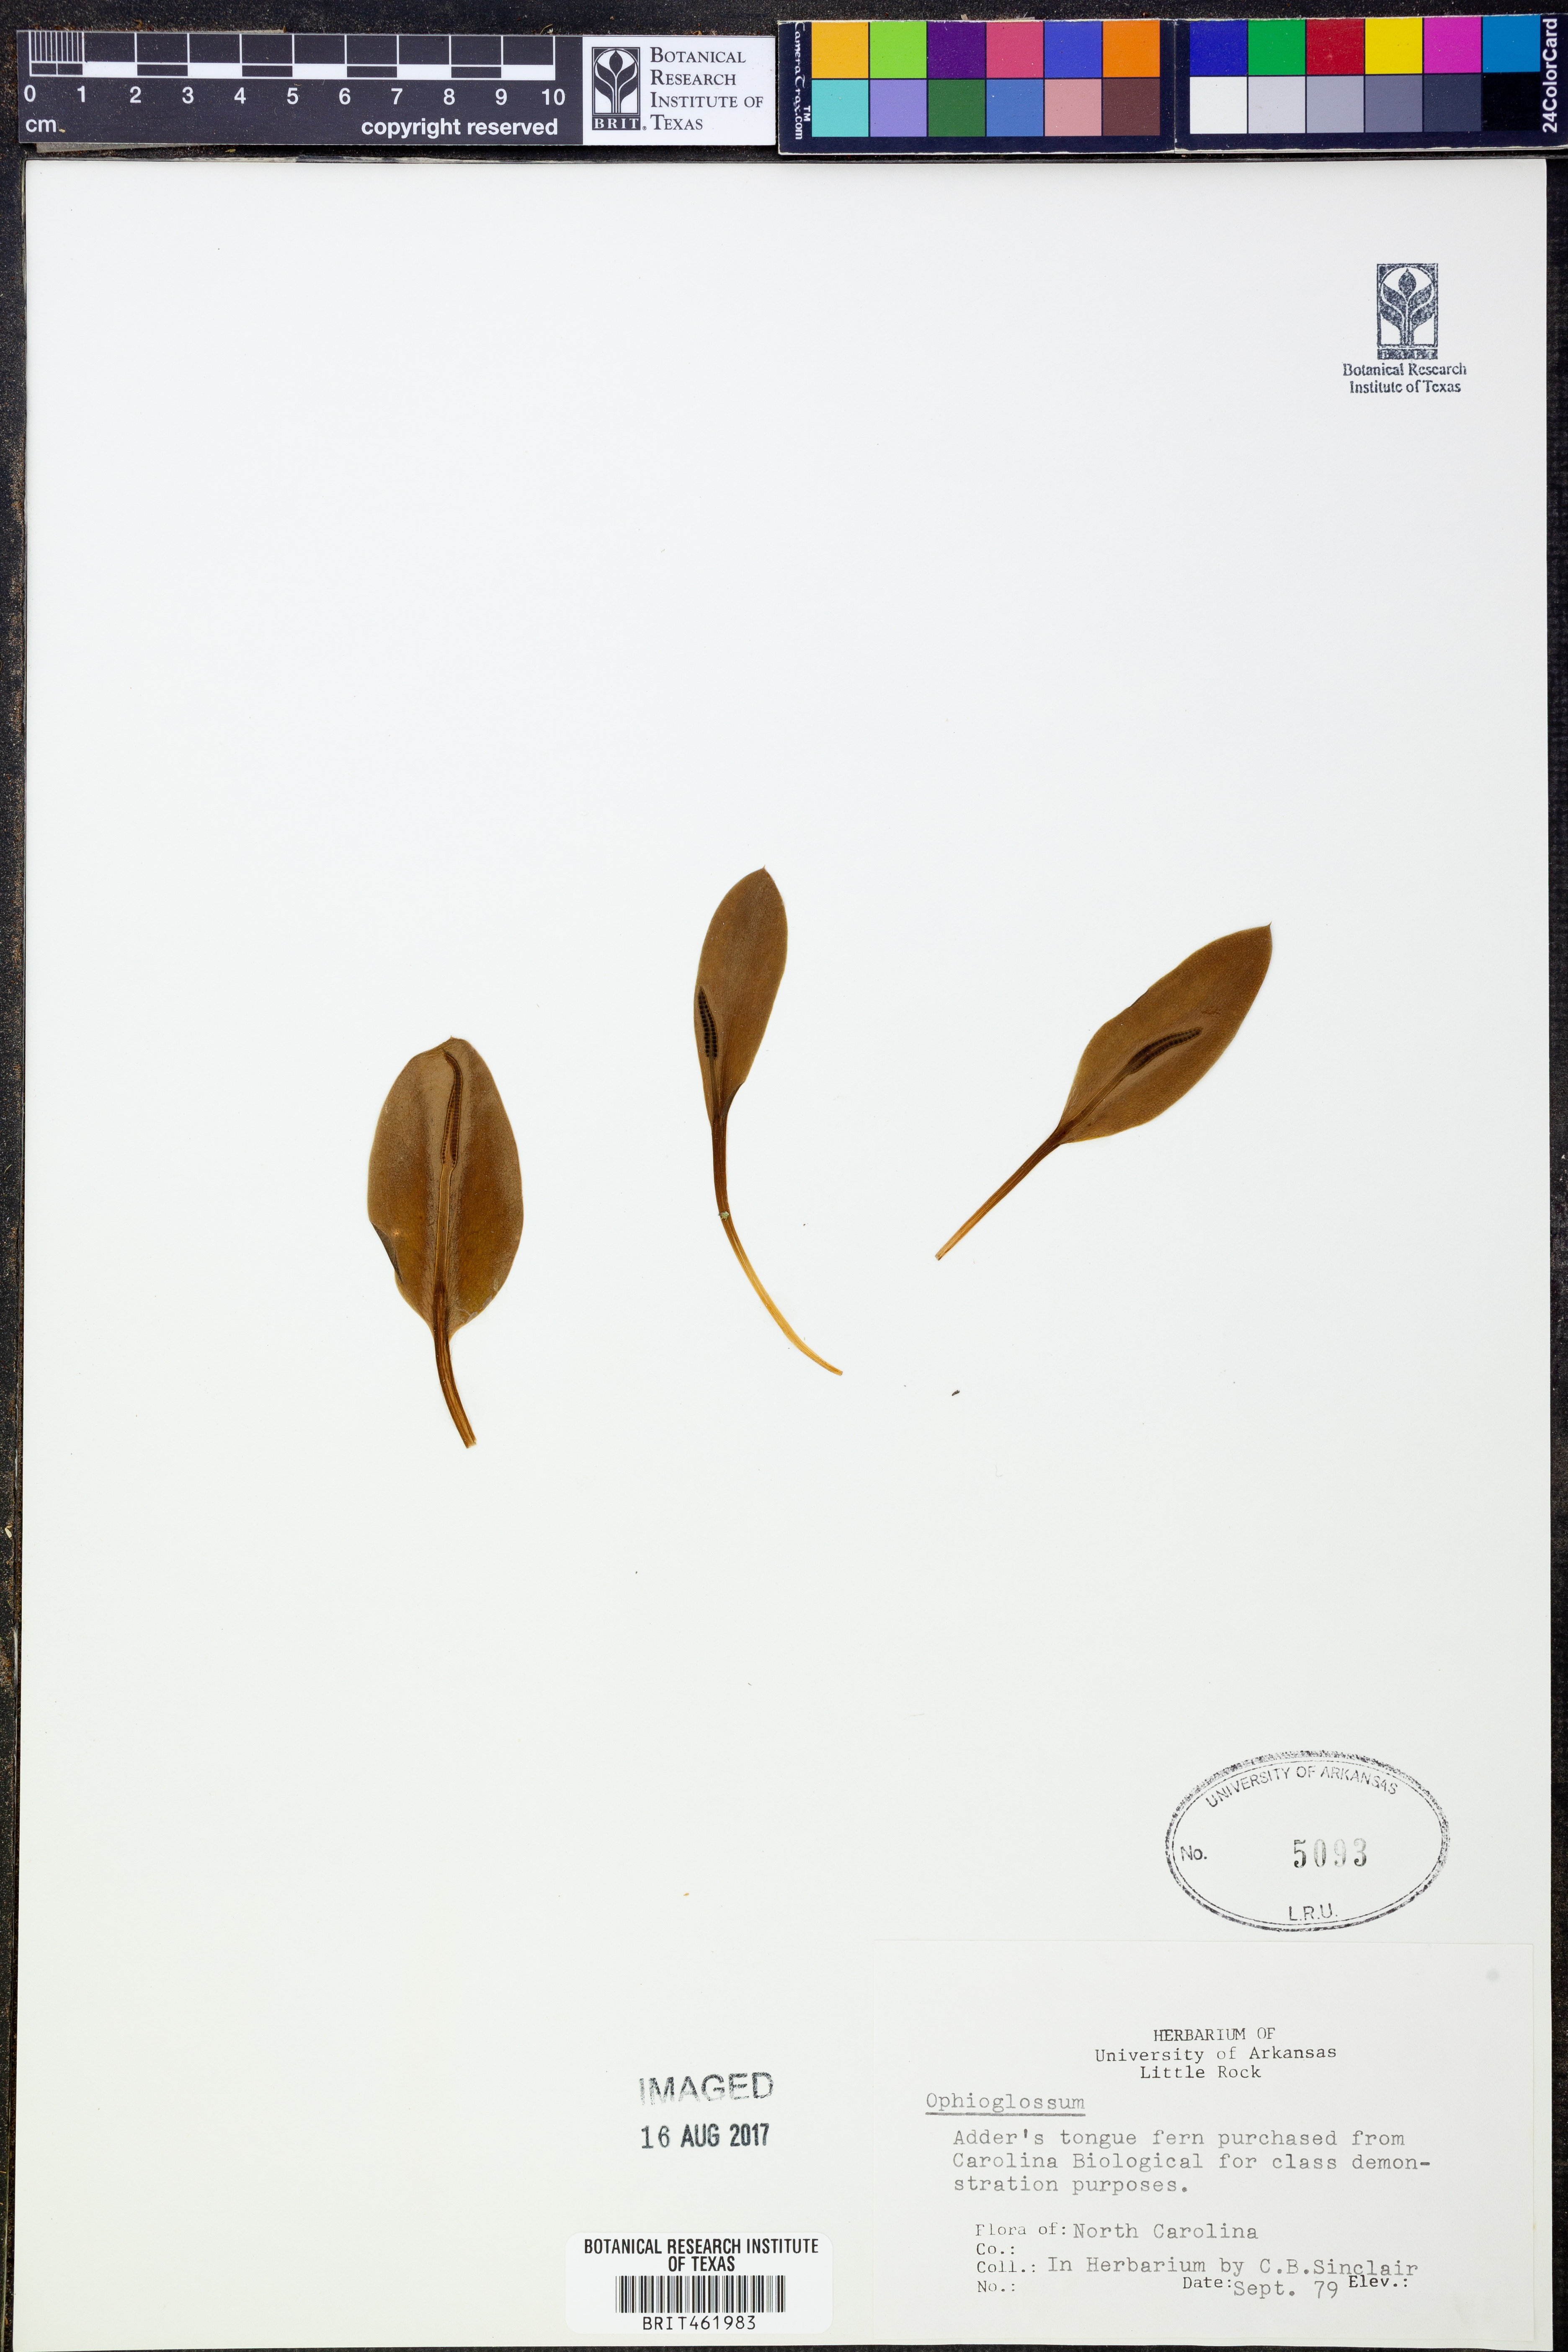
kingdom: Plantae
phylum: Tracheophyta
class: Polypodiopsida
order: Ophioglossales
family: Ophioglossaceae
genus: Ophioglossum
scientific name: Ophioglossum
